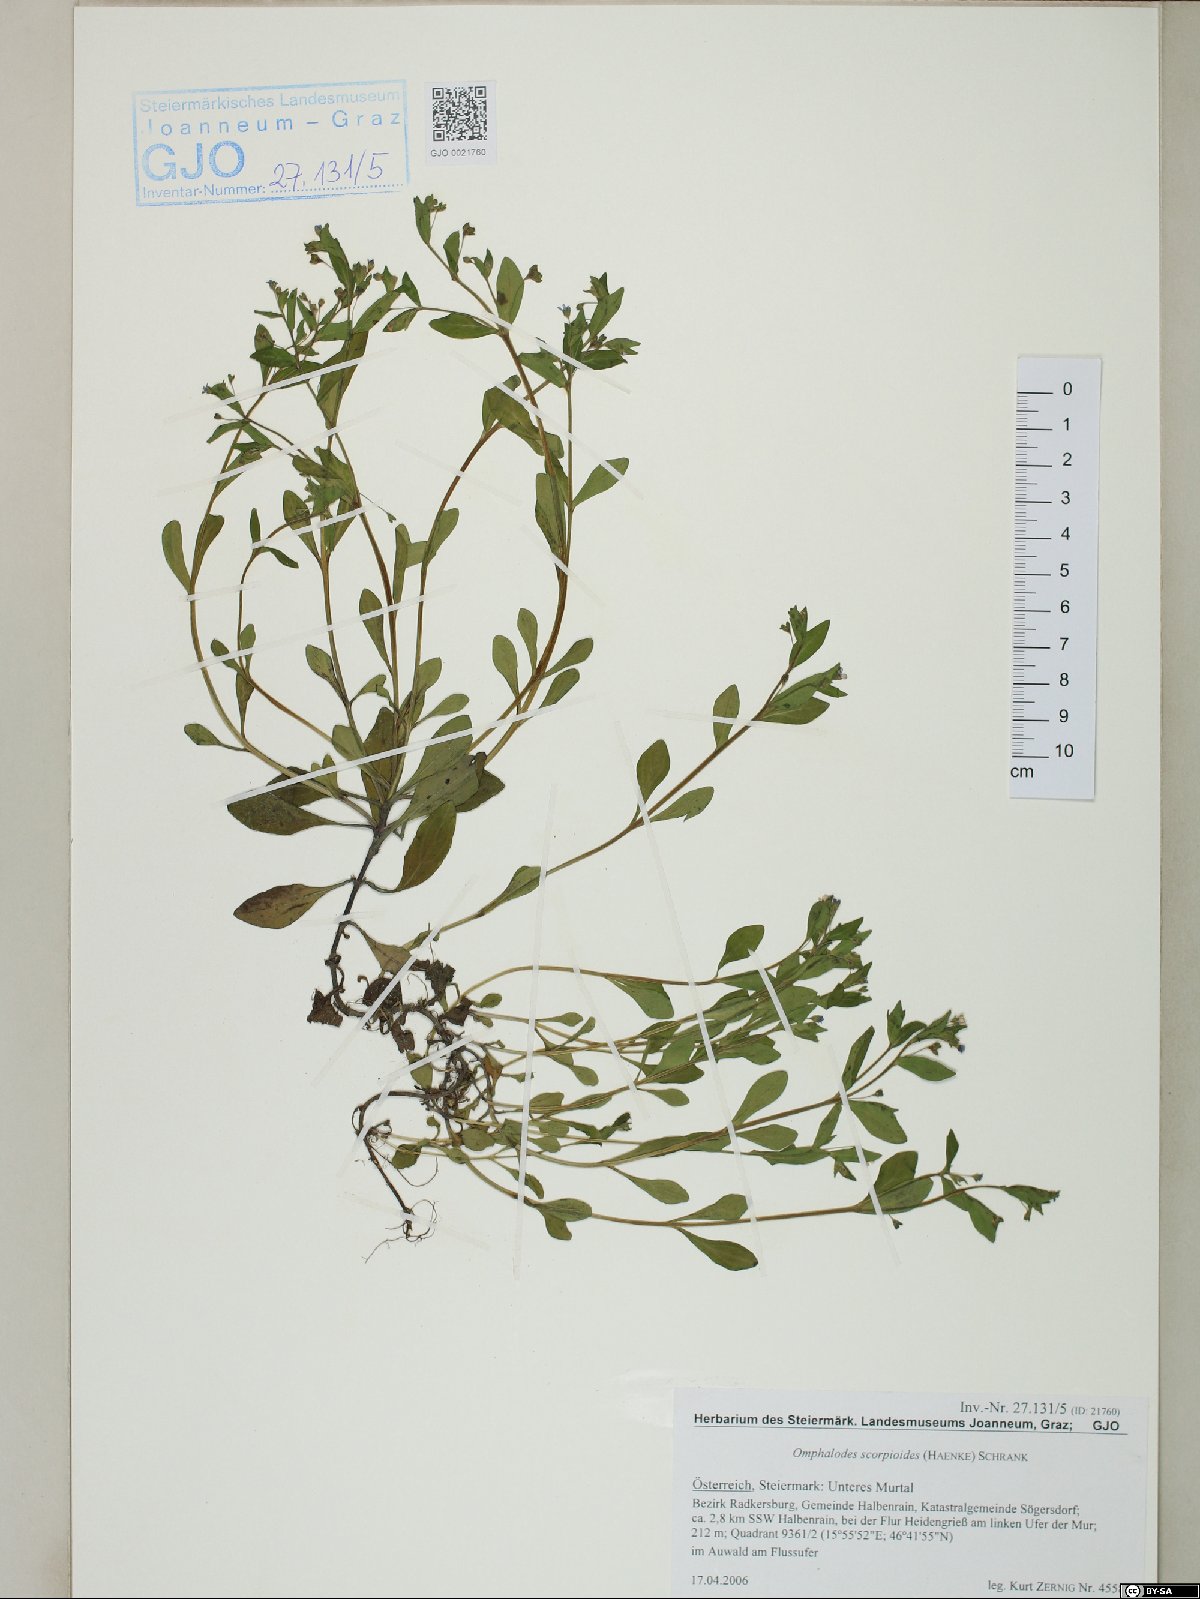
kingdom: Plantae
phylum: Tracheophyta
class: Magnoliopsida
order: Boraginales
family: Boraginaceae
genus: Memoremea
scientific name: Memoremea scorpioides
